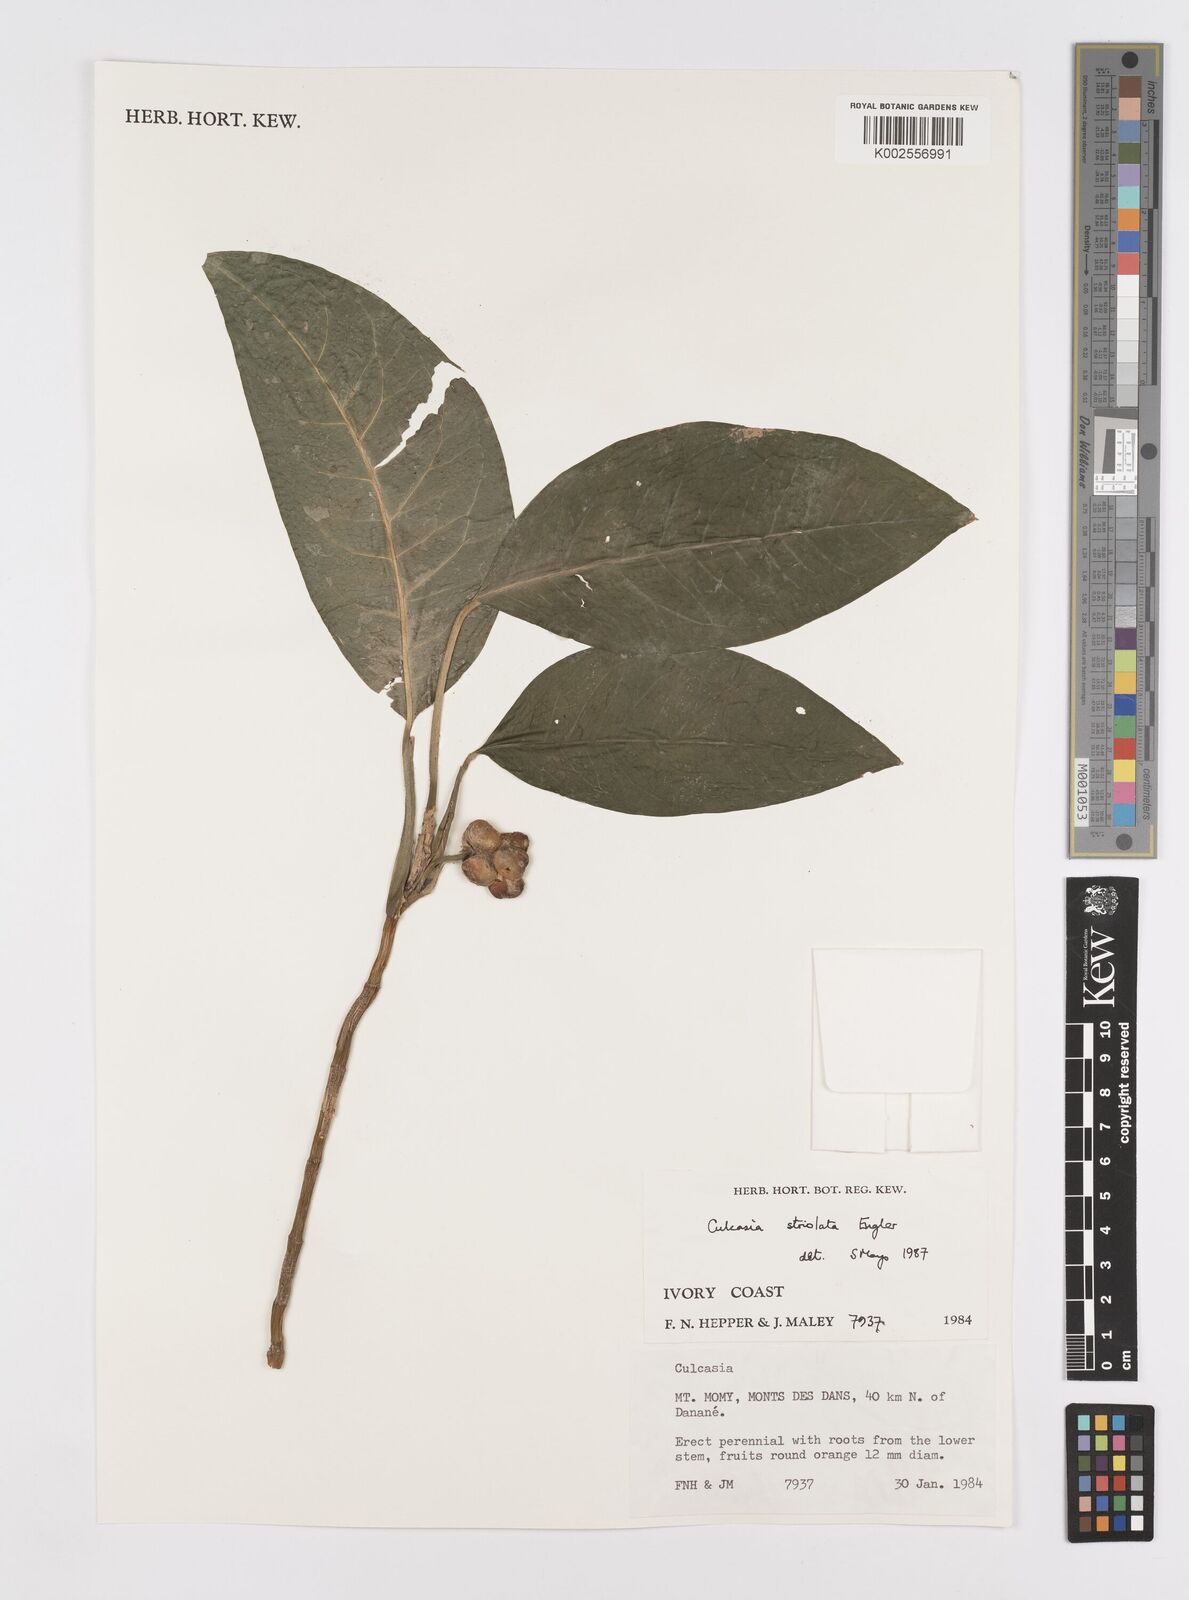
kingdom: Plantae
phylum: Tracheophyta
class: Liliopsida
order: Alismatales
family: Araceae
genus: Culcasia
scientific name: Culcasia striolata
